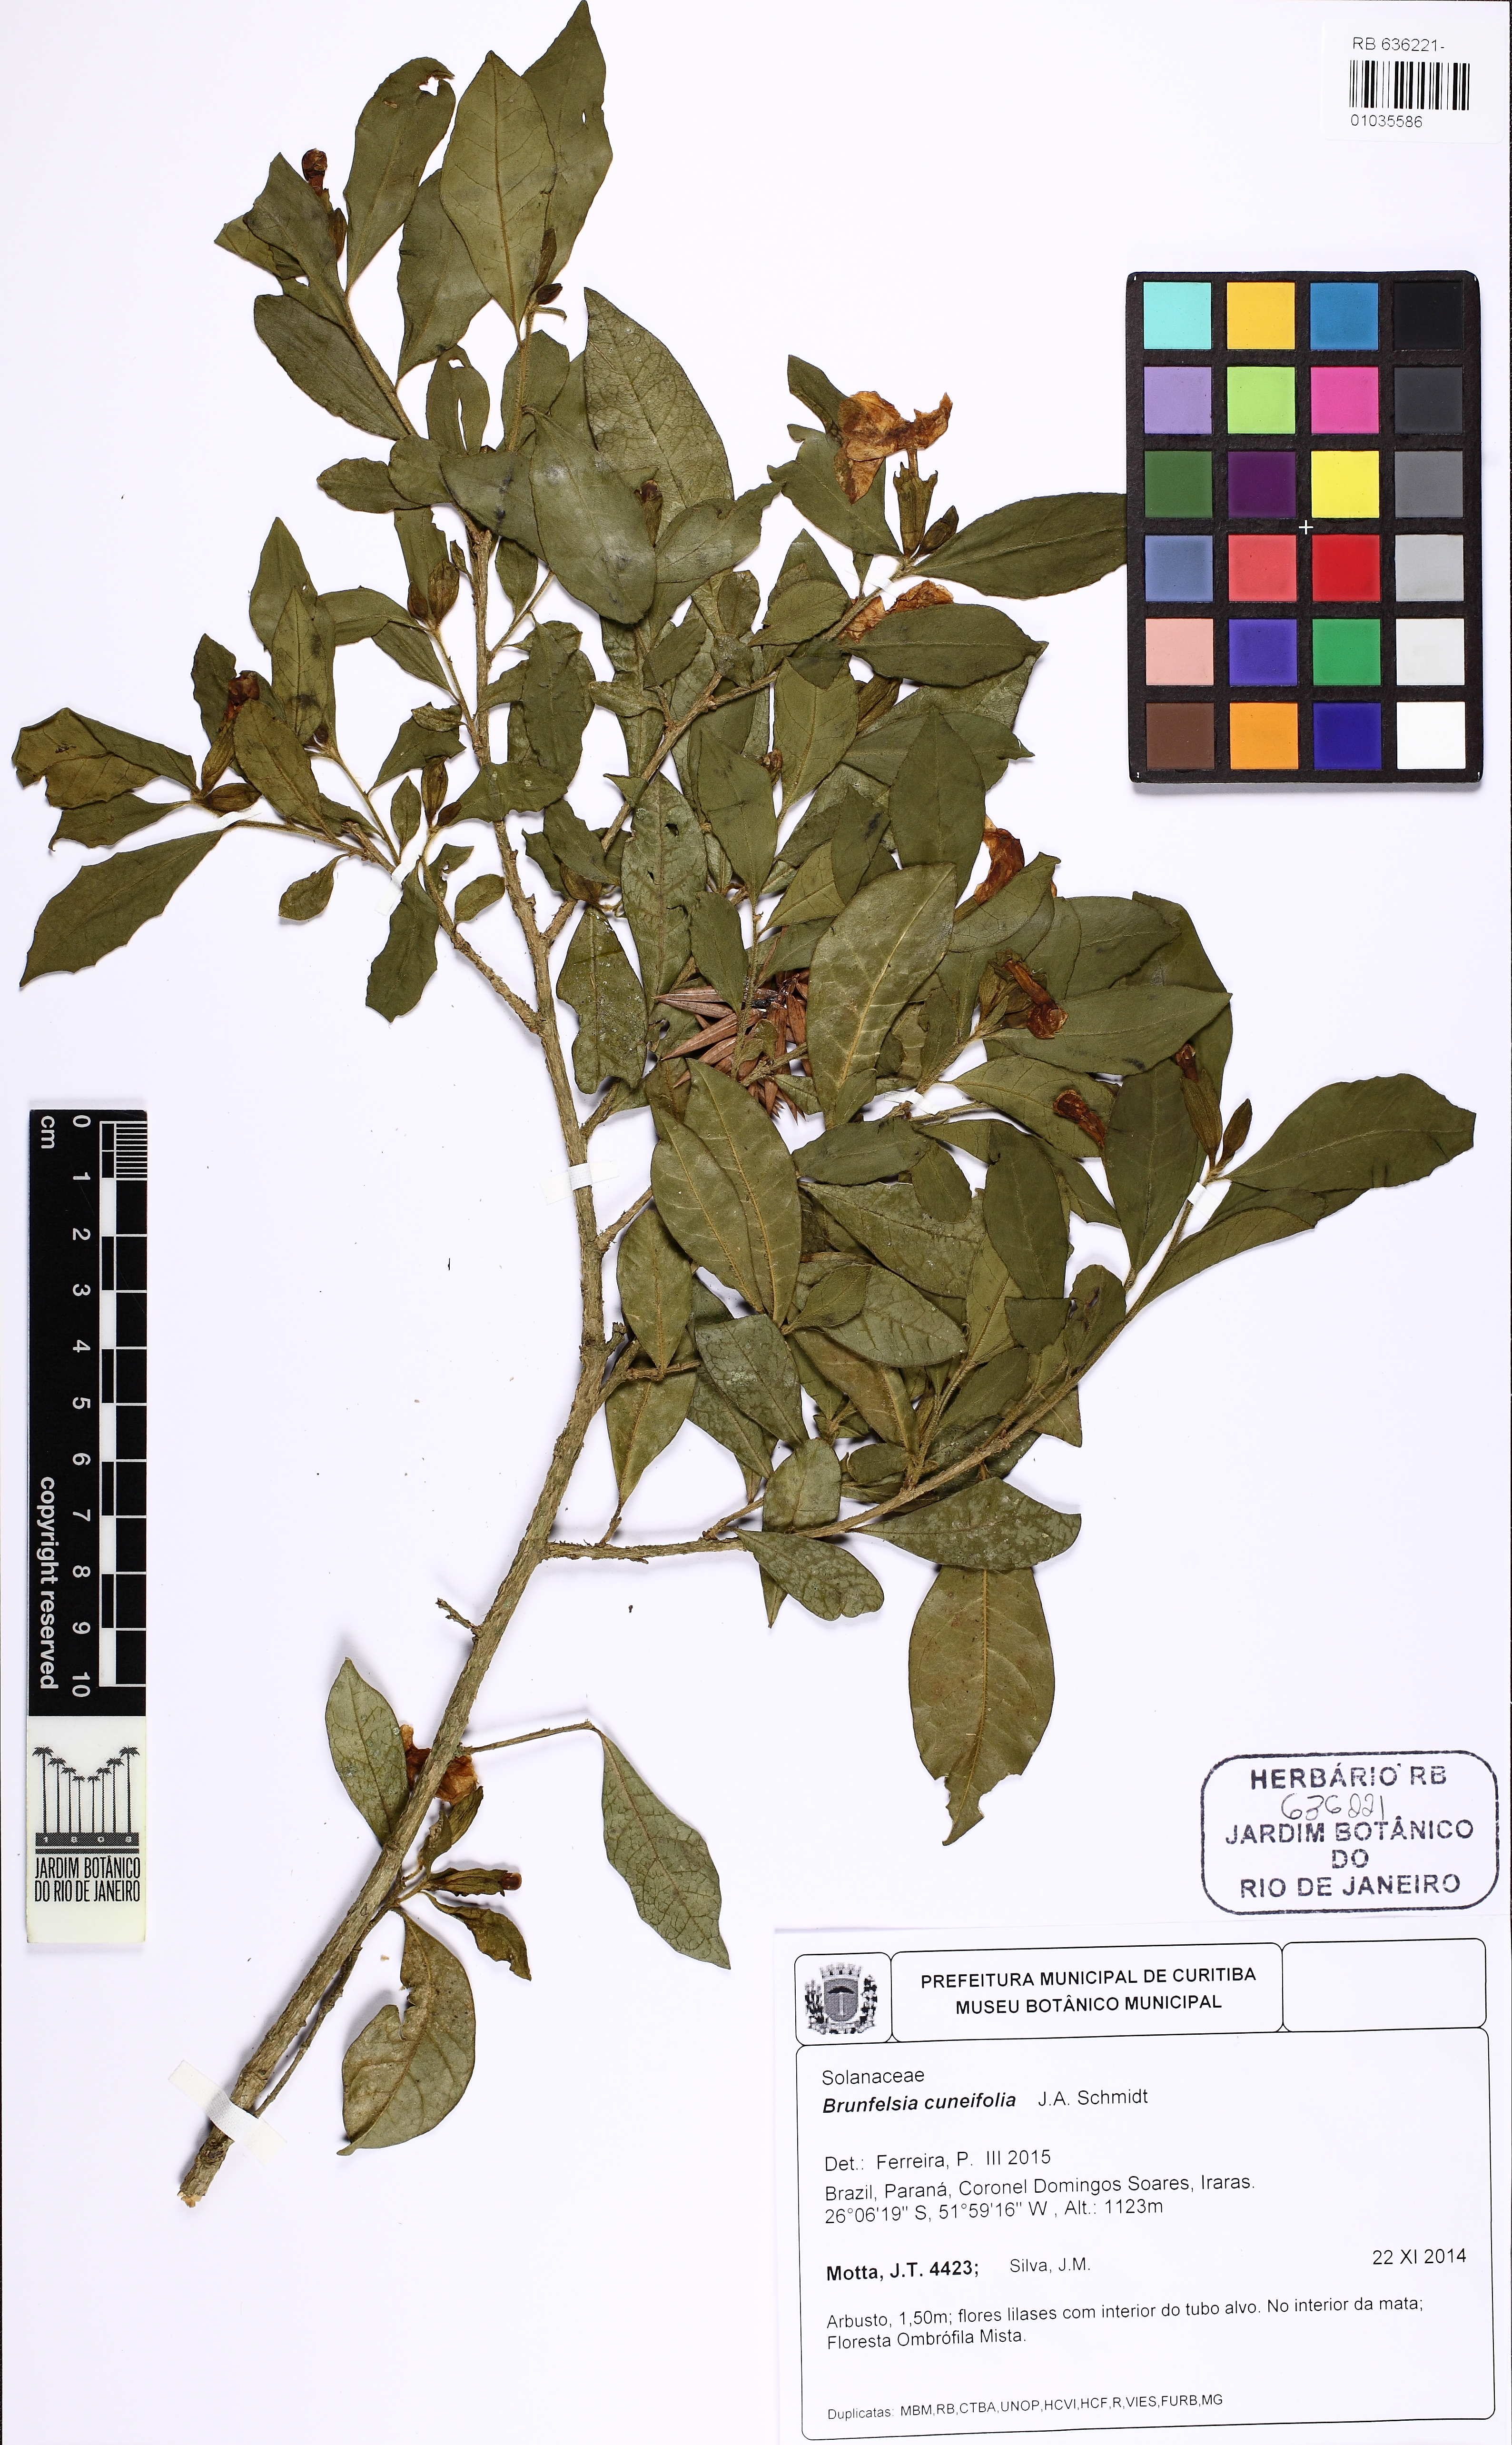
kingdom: Plantae
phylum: Tracheophyta
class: Magnoliopsida
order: Solanales
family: Solanaceae
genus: Brunfelsia
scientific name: Brunfelsia cuneifolia
